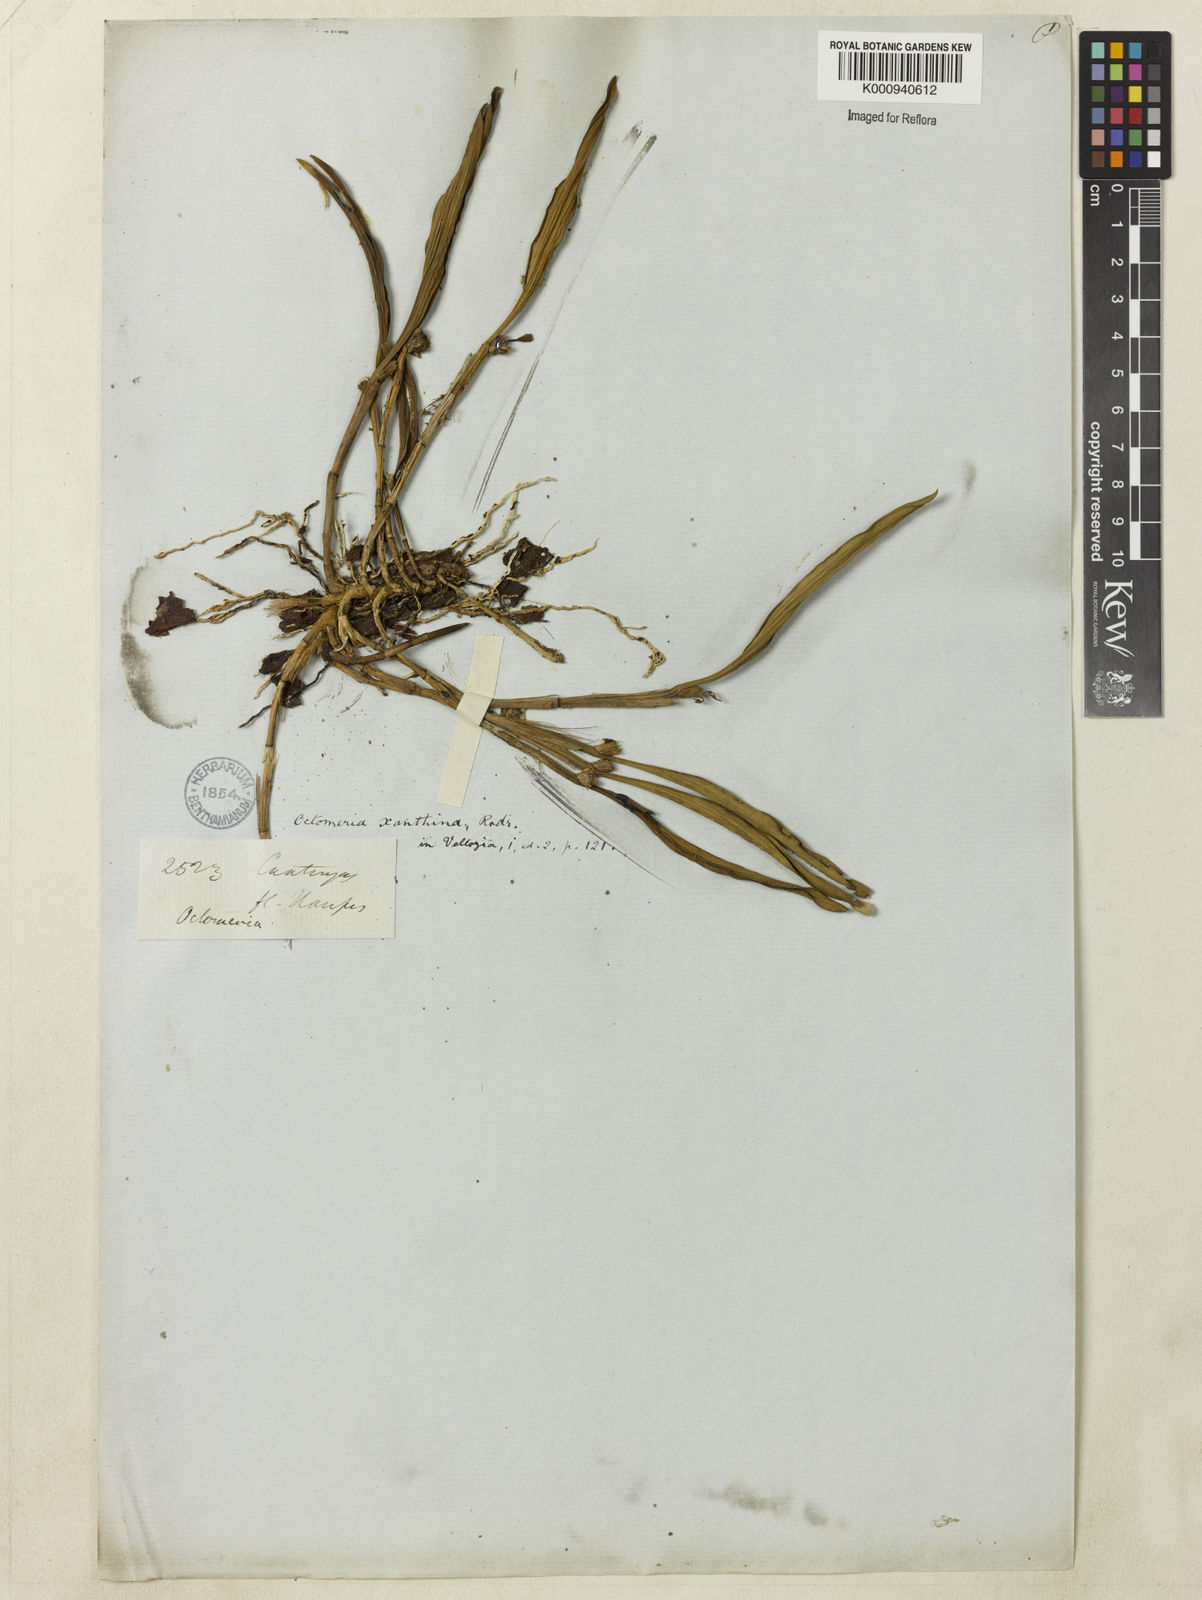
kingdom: Plantae
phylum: Tracheophyta
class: Liliopsida
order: Asparagales
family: Orchidaceae
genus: Octomeria
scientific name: Octomeria surinamensis
